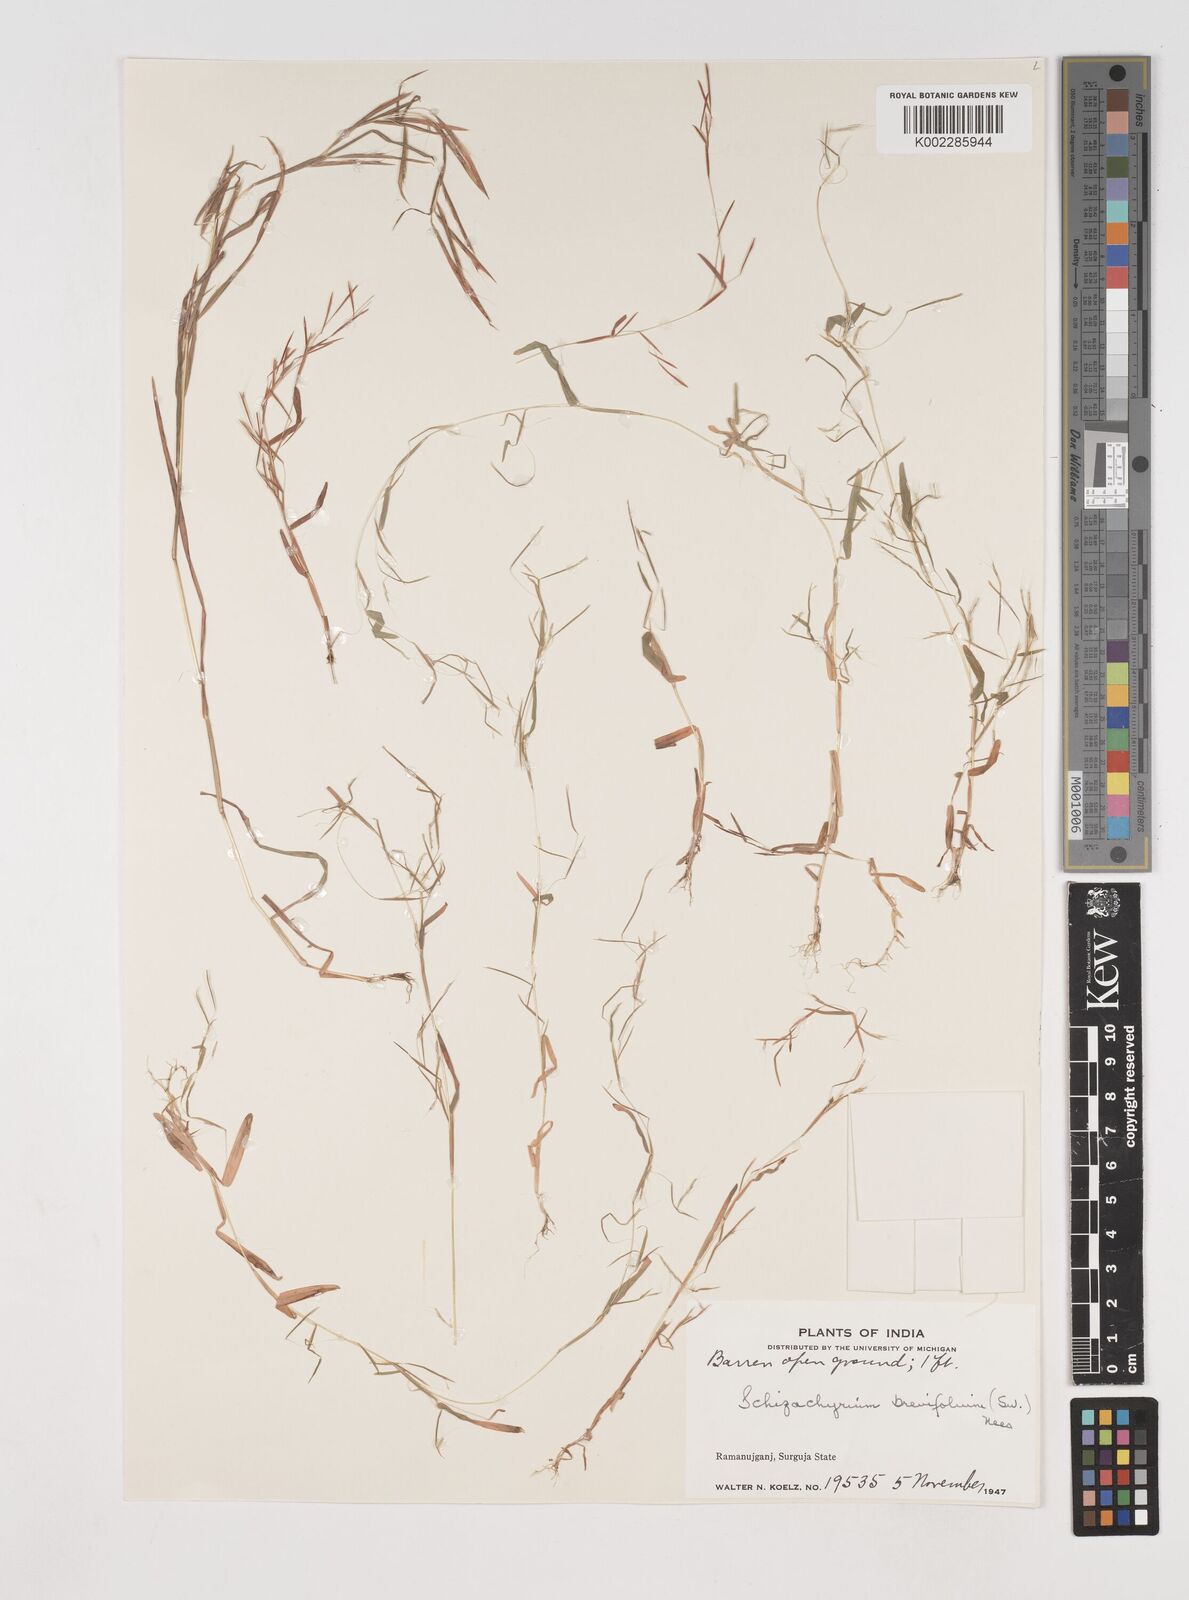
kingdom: Plantae
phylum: Tracheophyta
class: Liliopsida
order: Poales
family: Poaceae
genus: Schizachyrium
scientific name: Schizachyrium brevifolium
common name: Serillo dulce
